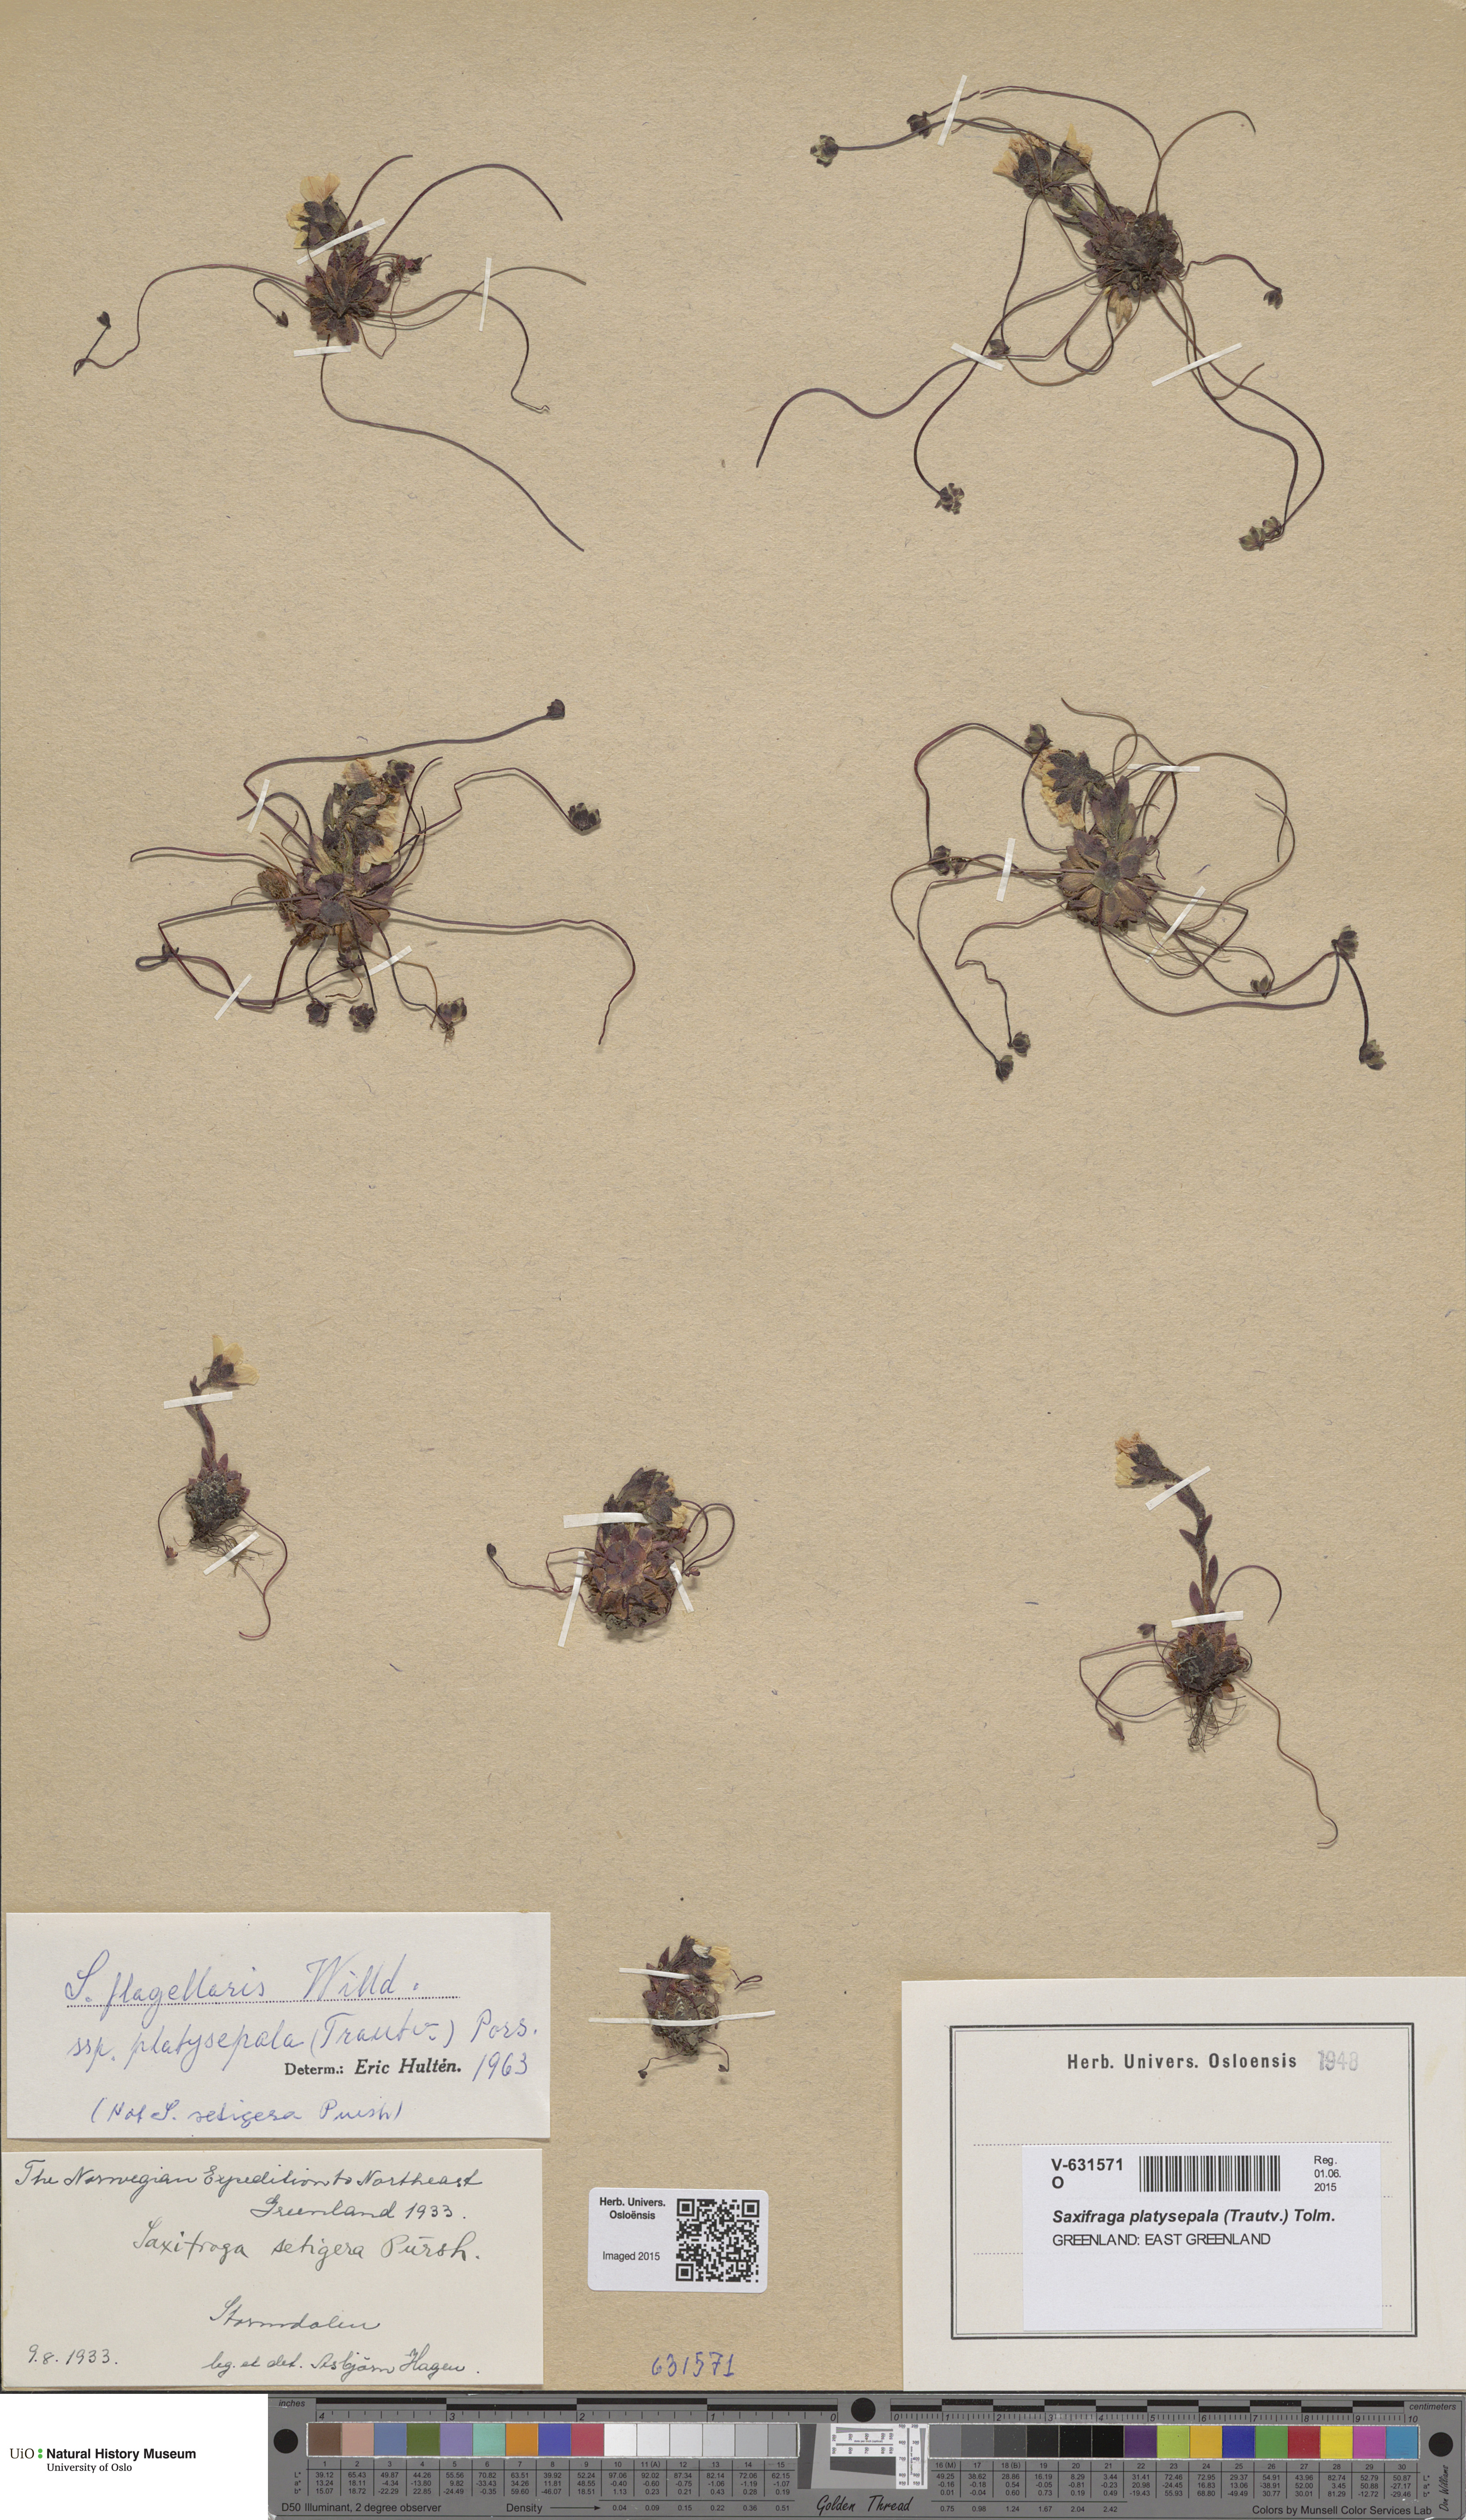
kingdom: Plantae
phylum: Tracheophyta
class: Magnoliopsida
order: Saxifragales
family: Saxifragaceae
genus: Saxifraga
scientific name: Saxifraga platysepala
